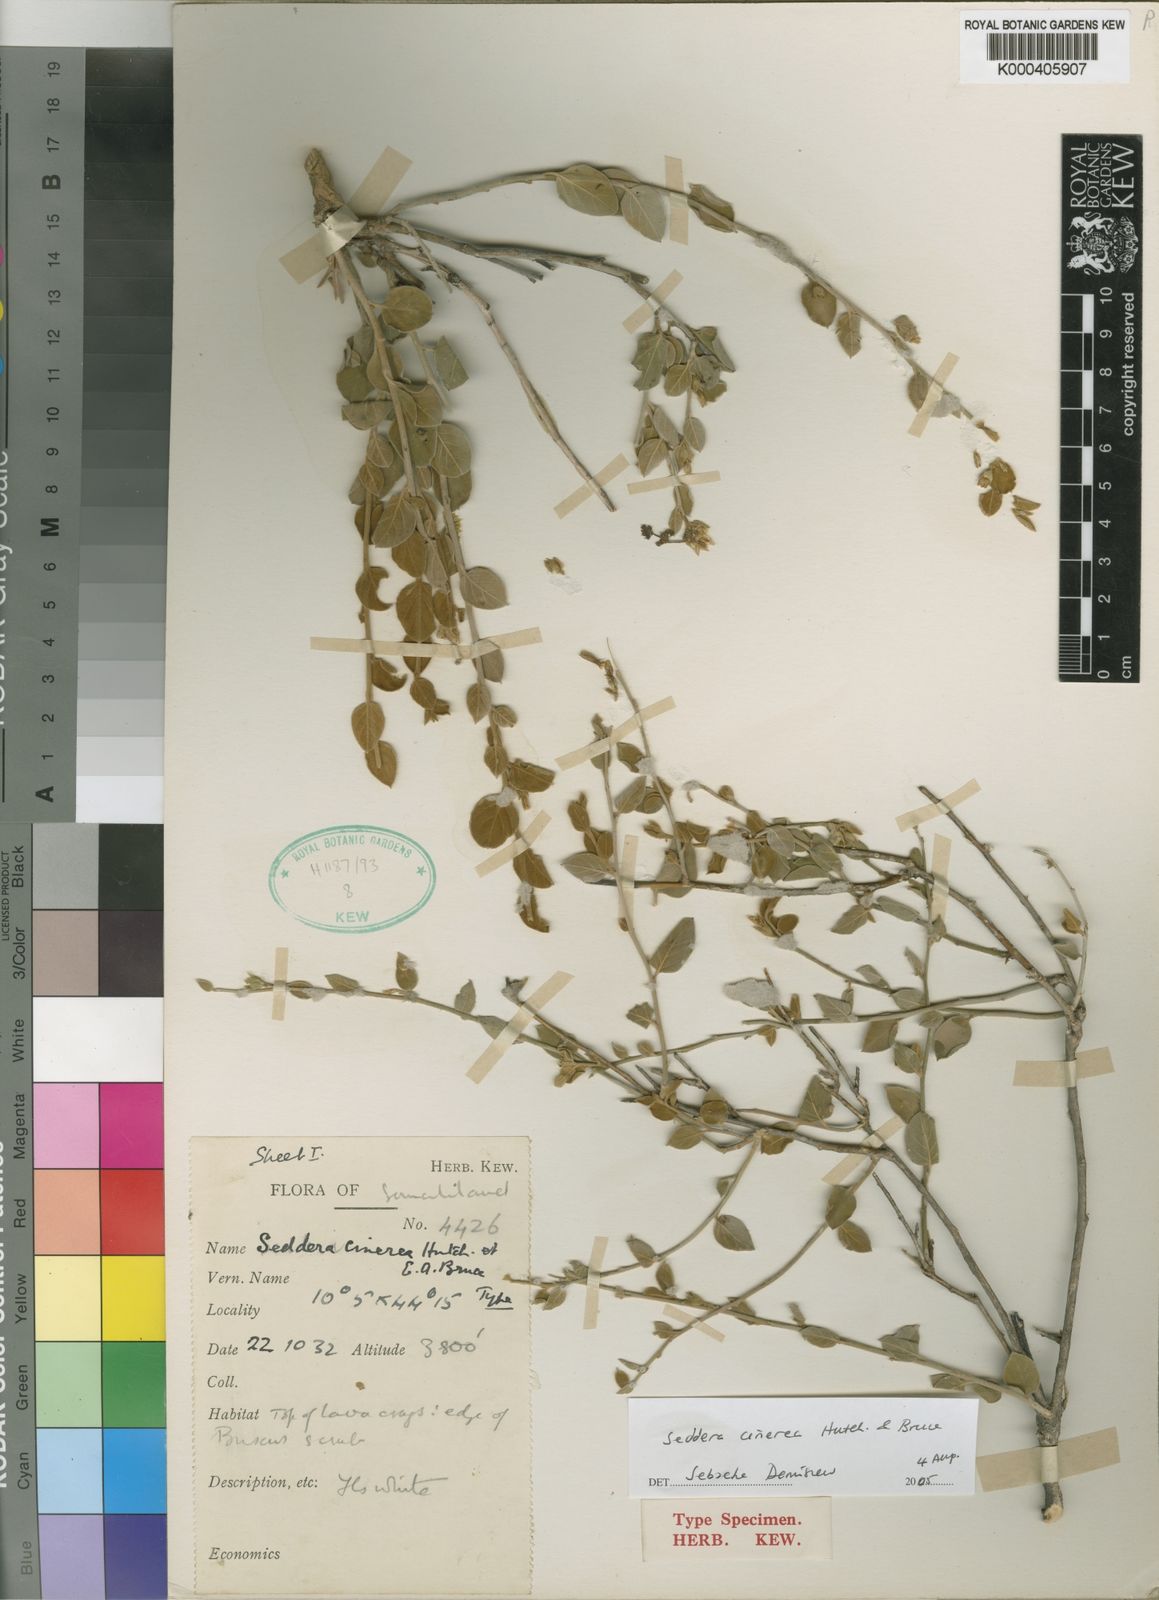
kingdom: Plantae
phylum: Tracheophyta
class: Magnoliopsida
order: Solanales
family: Convolvulaceae
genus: Seddera
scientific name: Seddera cinerea
